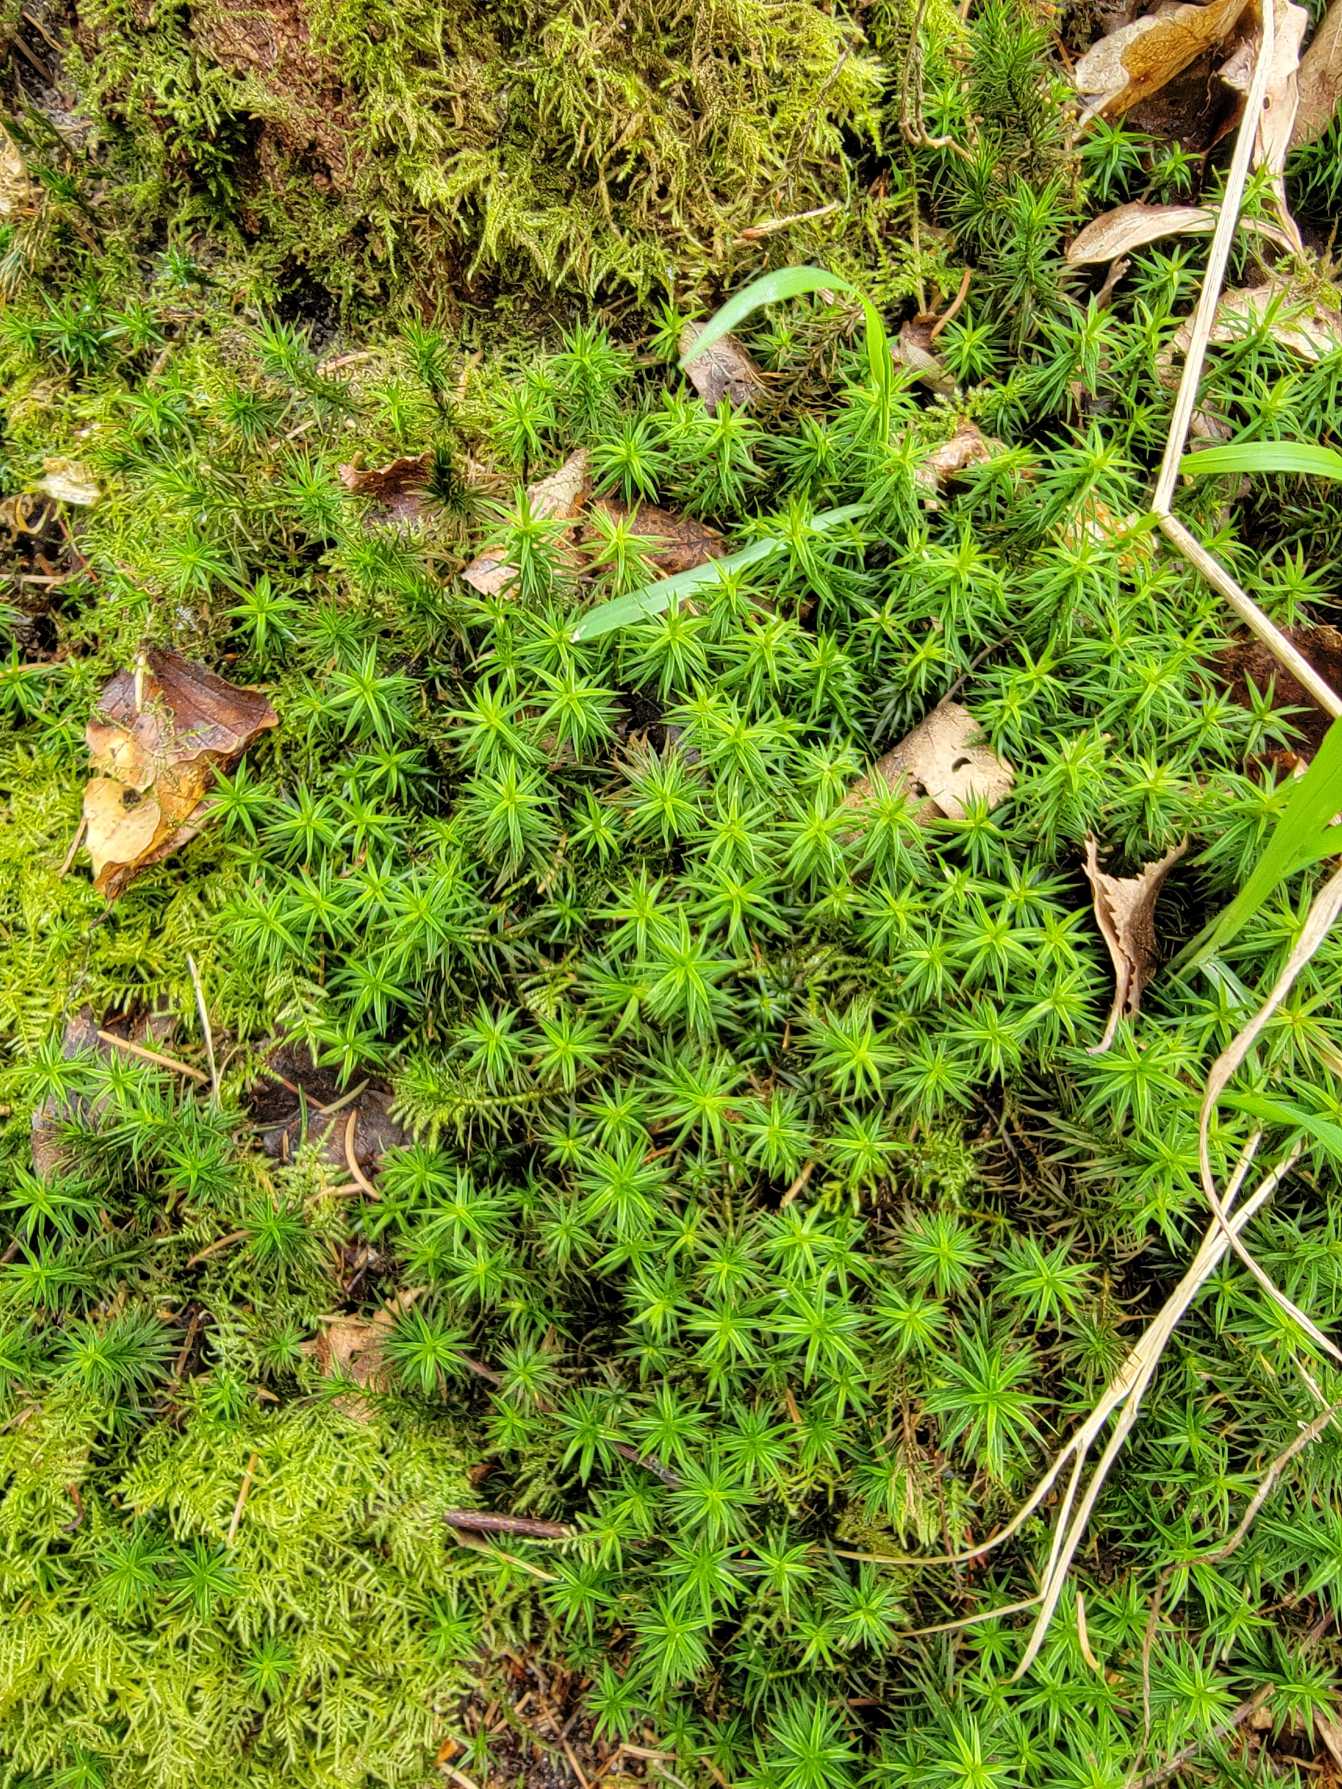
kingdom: Plantae
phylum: Bryophyta
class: Polytrichopsida
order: Polytrichales
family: Polytrichaceae
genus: Polytrichum
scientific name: Polytrichum formosum
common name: Skov-jomfruhår
